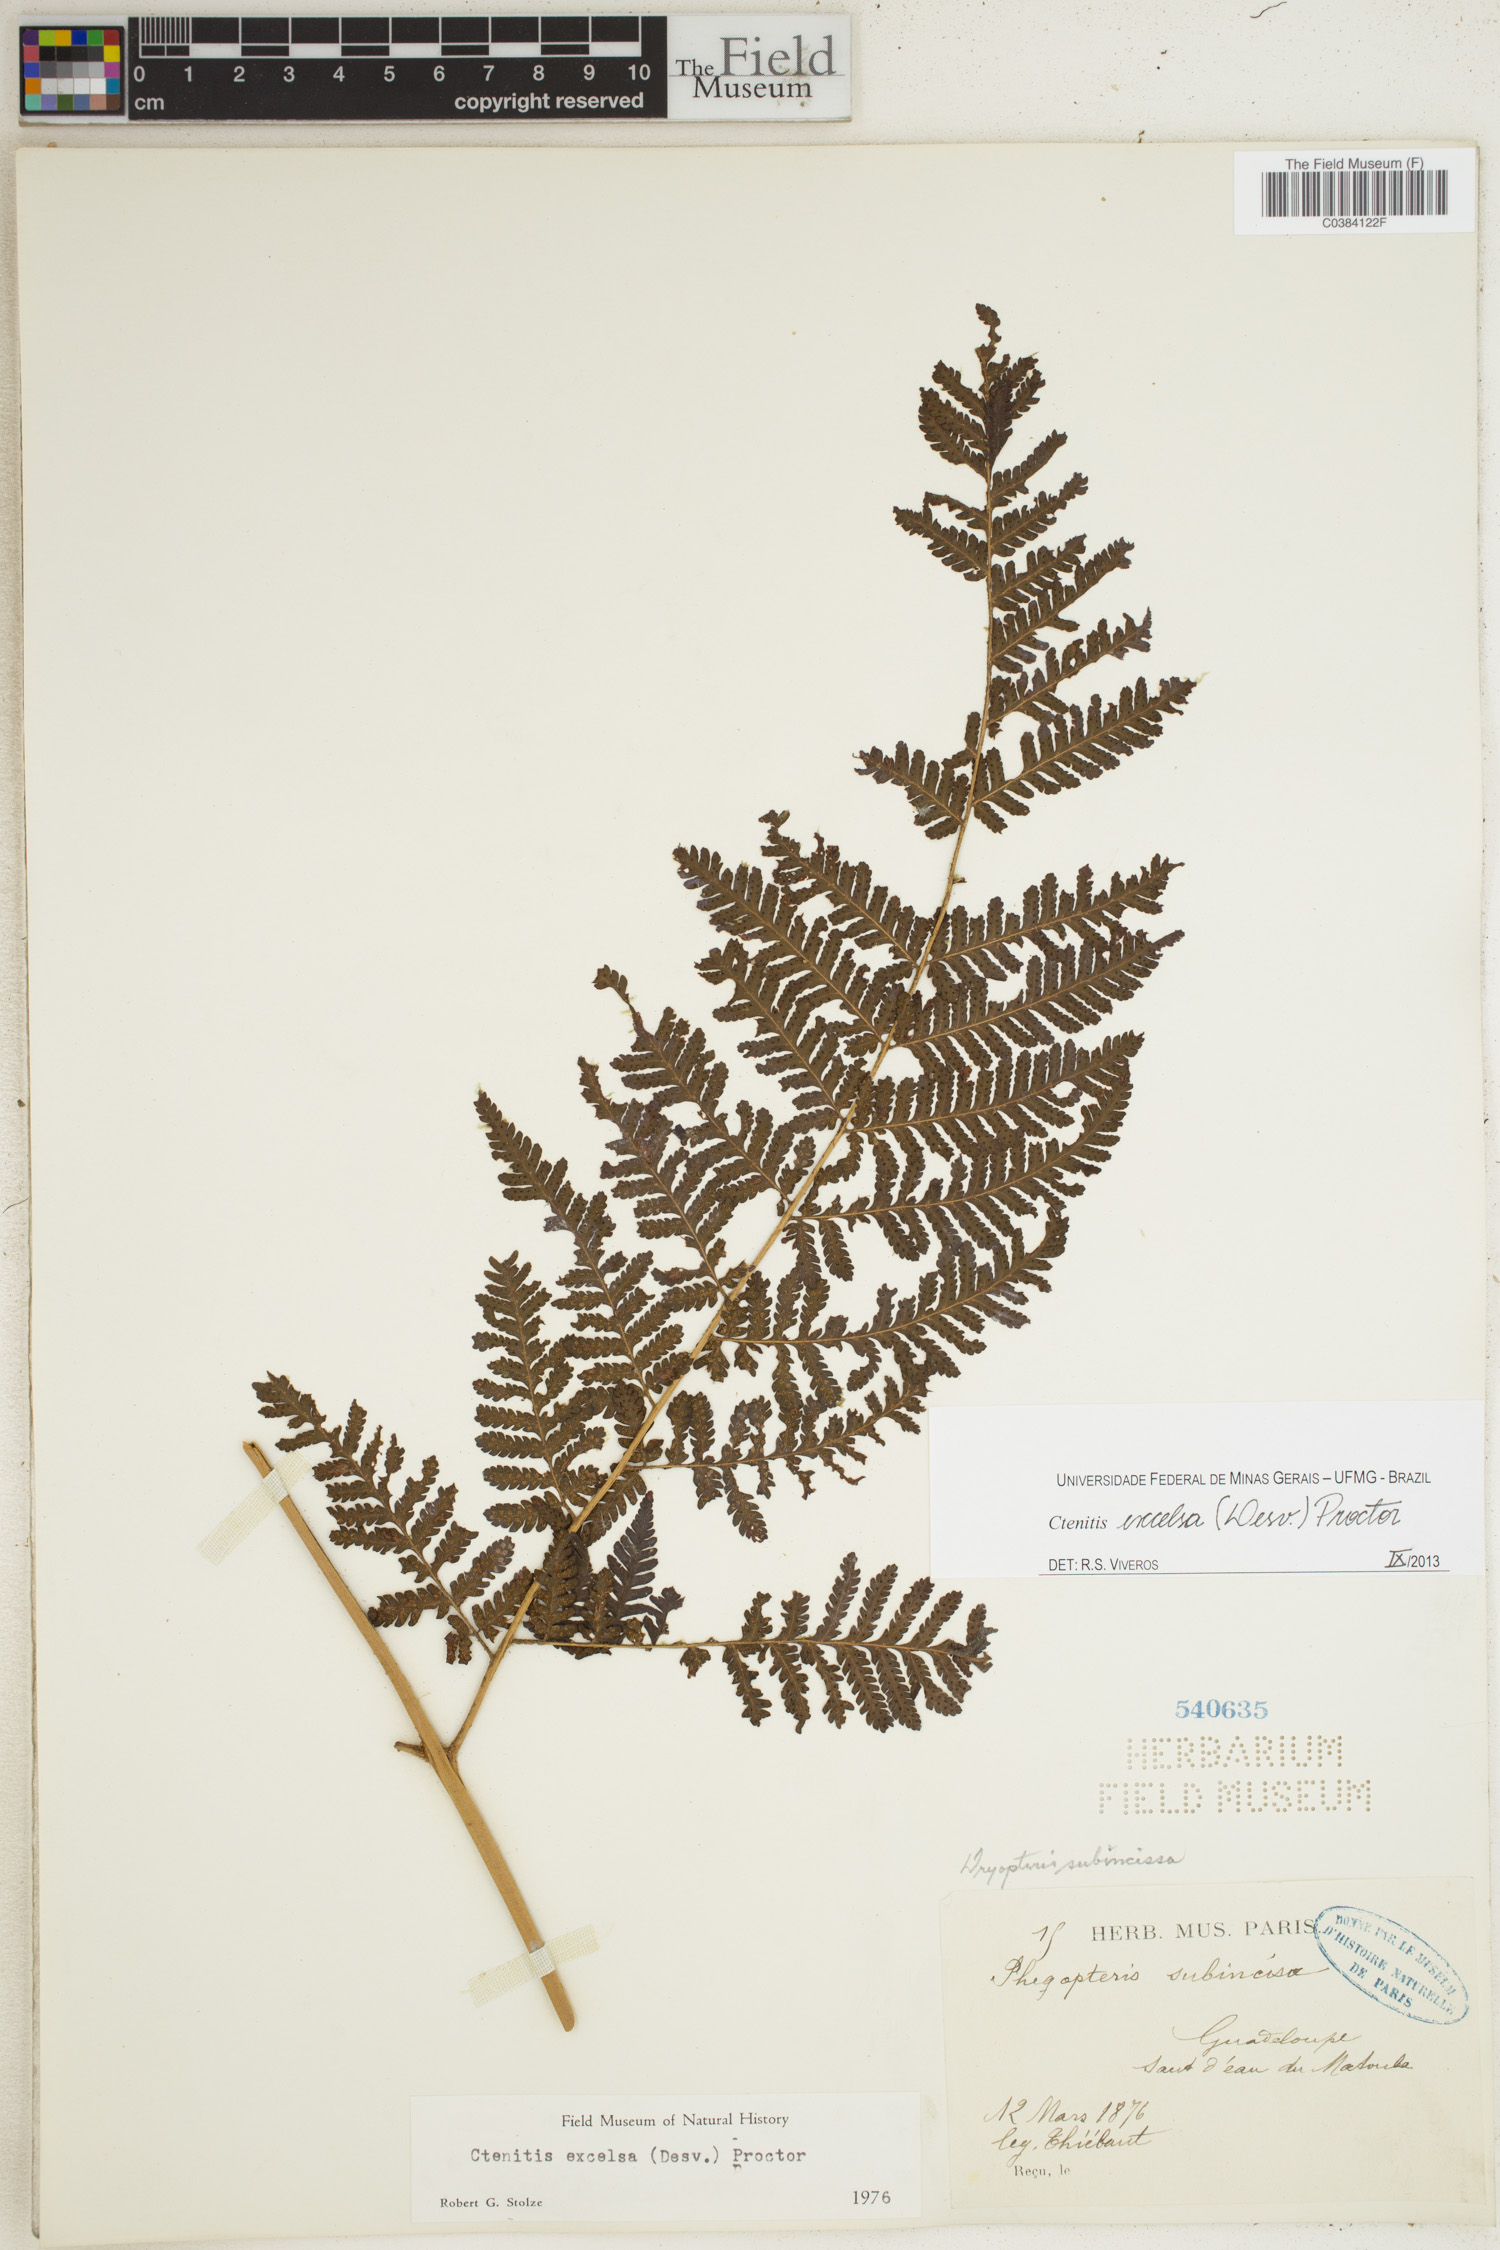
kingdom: Plantae
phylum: Tracheophyta
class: Polypodiopsida
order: Polypodiales
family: Dryopteridaceae
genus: Ctenitis
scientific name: Ctenitis excelsa
